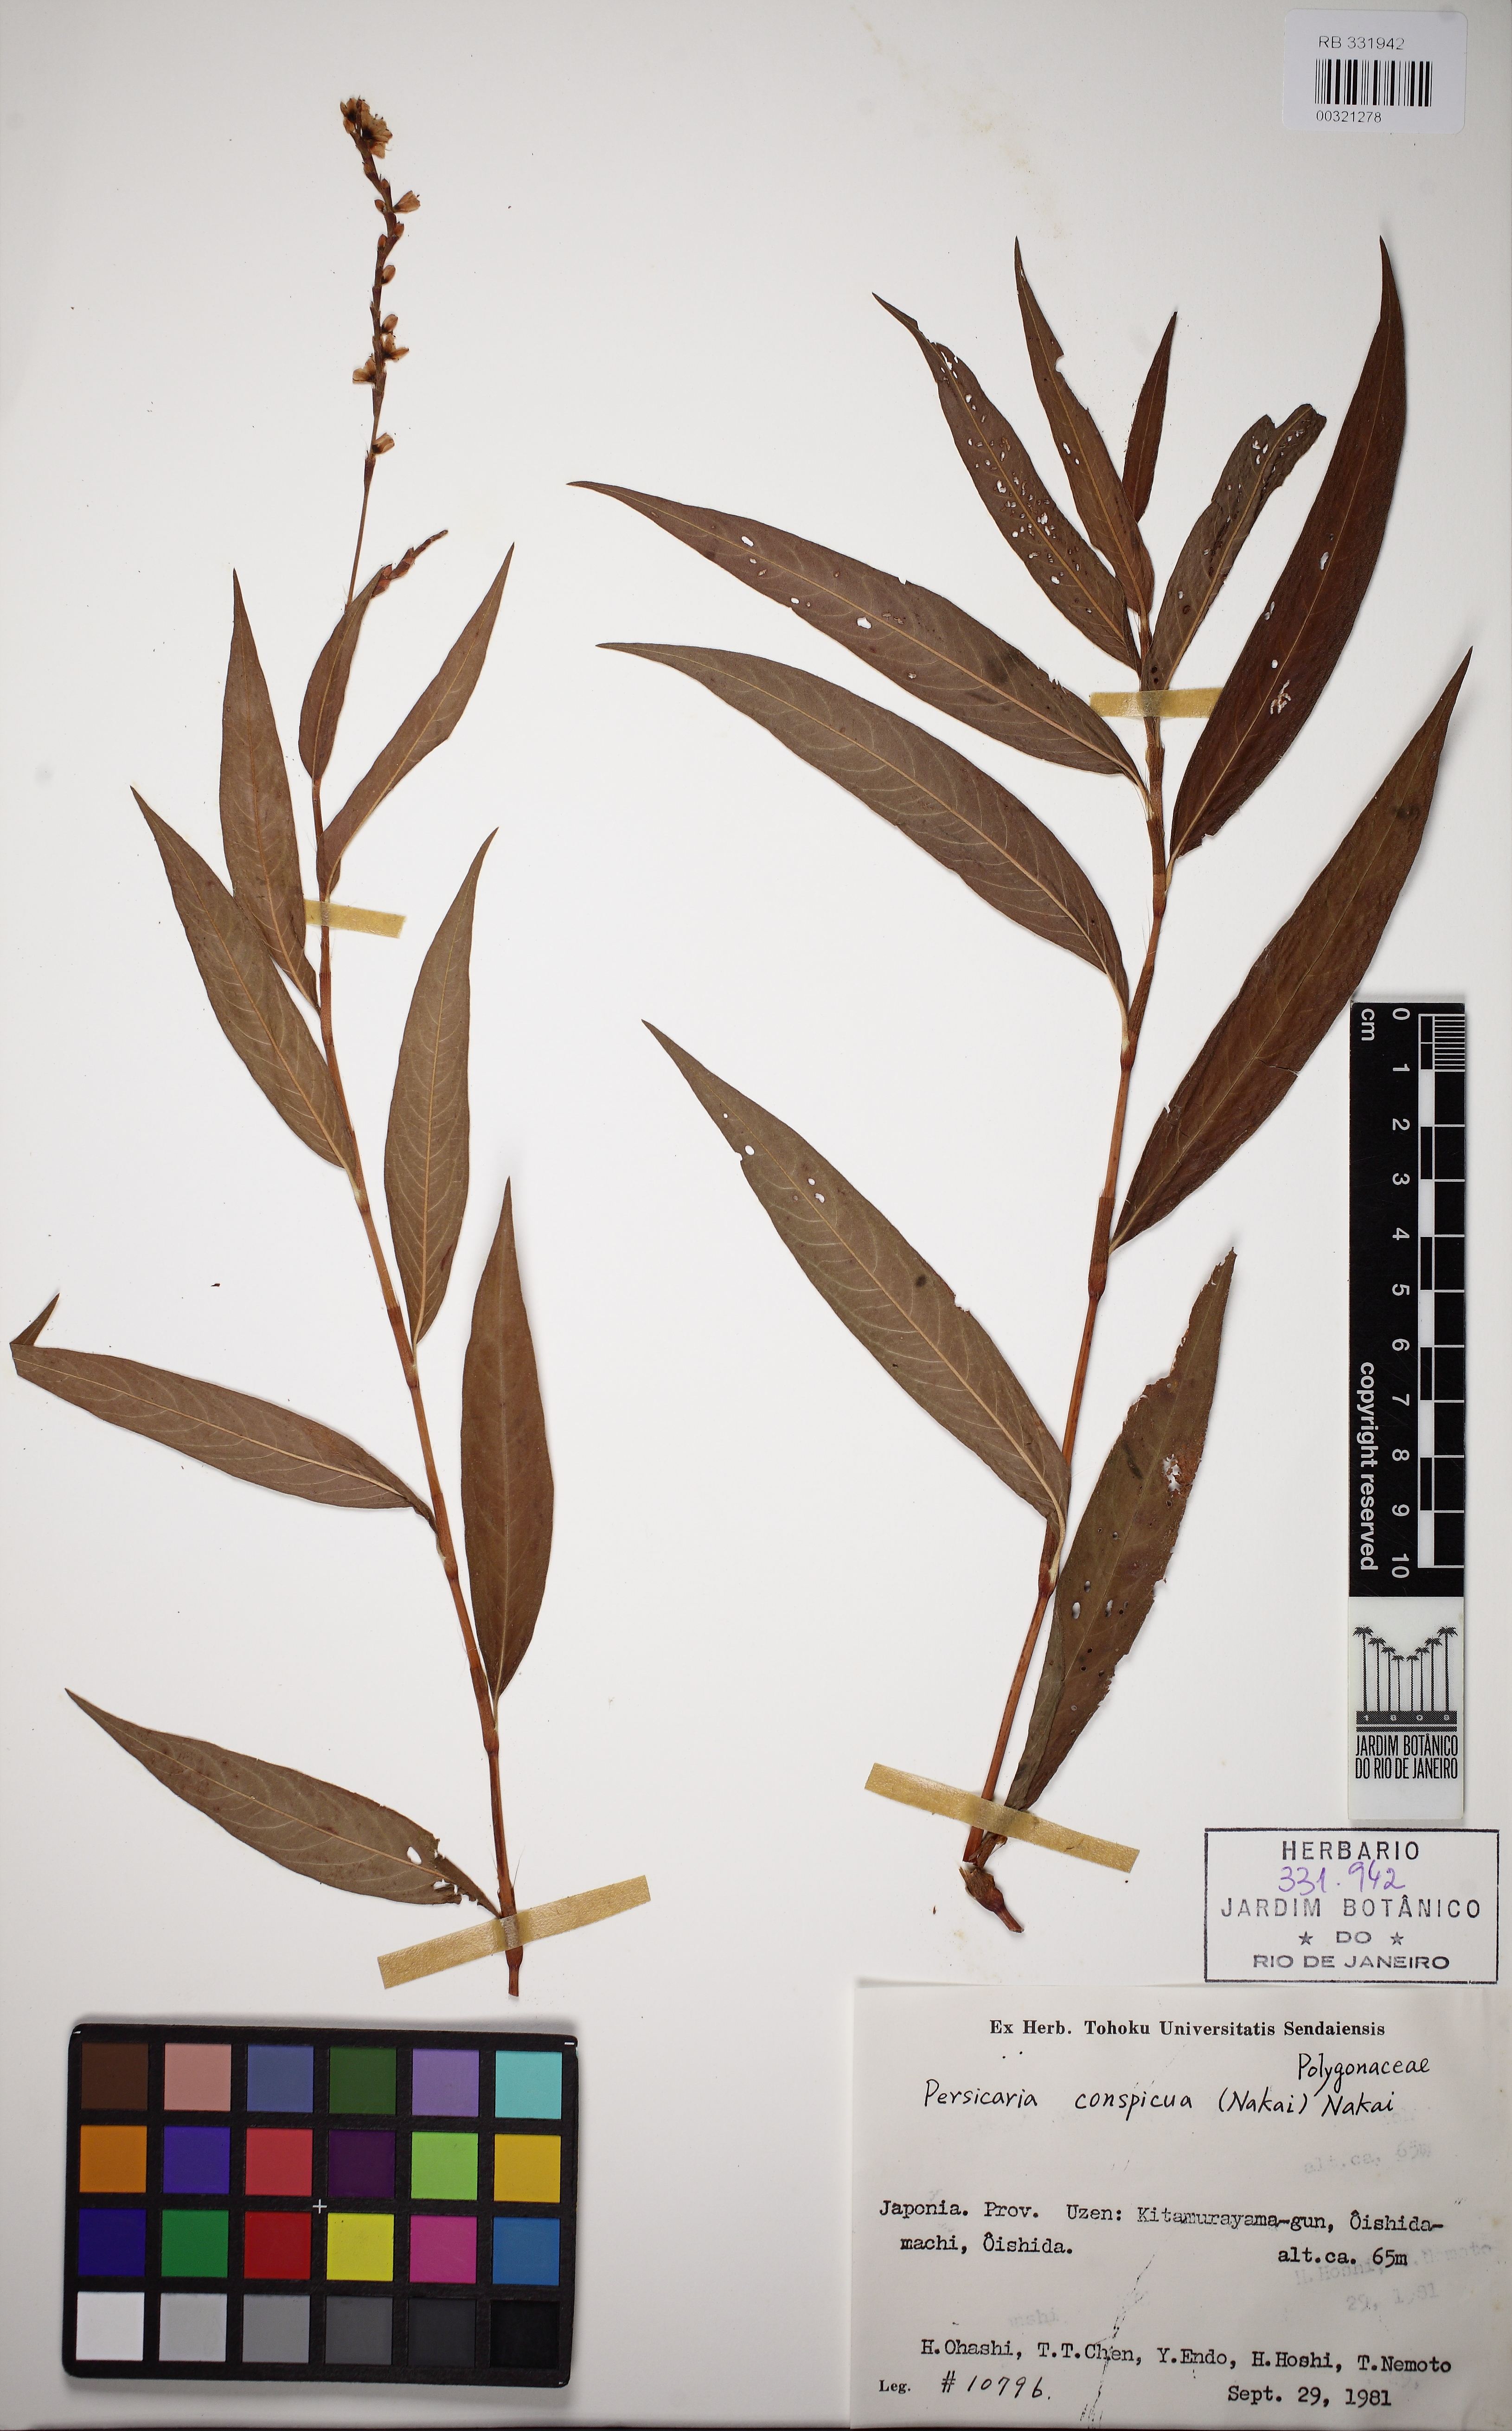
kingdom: Plantae
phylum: Tracheophyta
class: Magnoliopsida
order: Caryophyllales
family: Polygonaceae
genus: Persicaria
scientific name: Persicaria odorata
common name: Vietnamese-coriander
